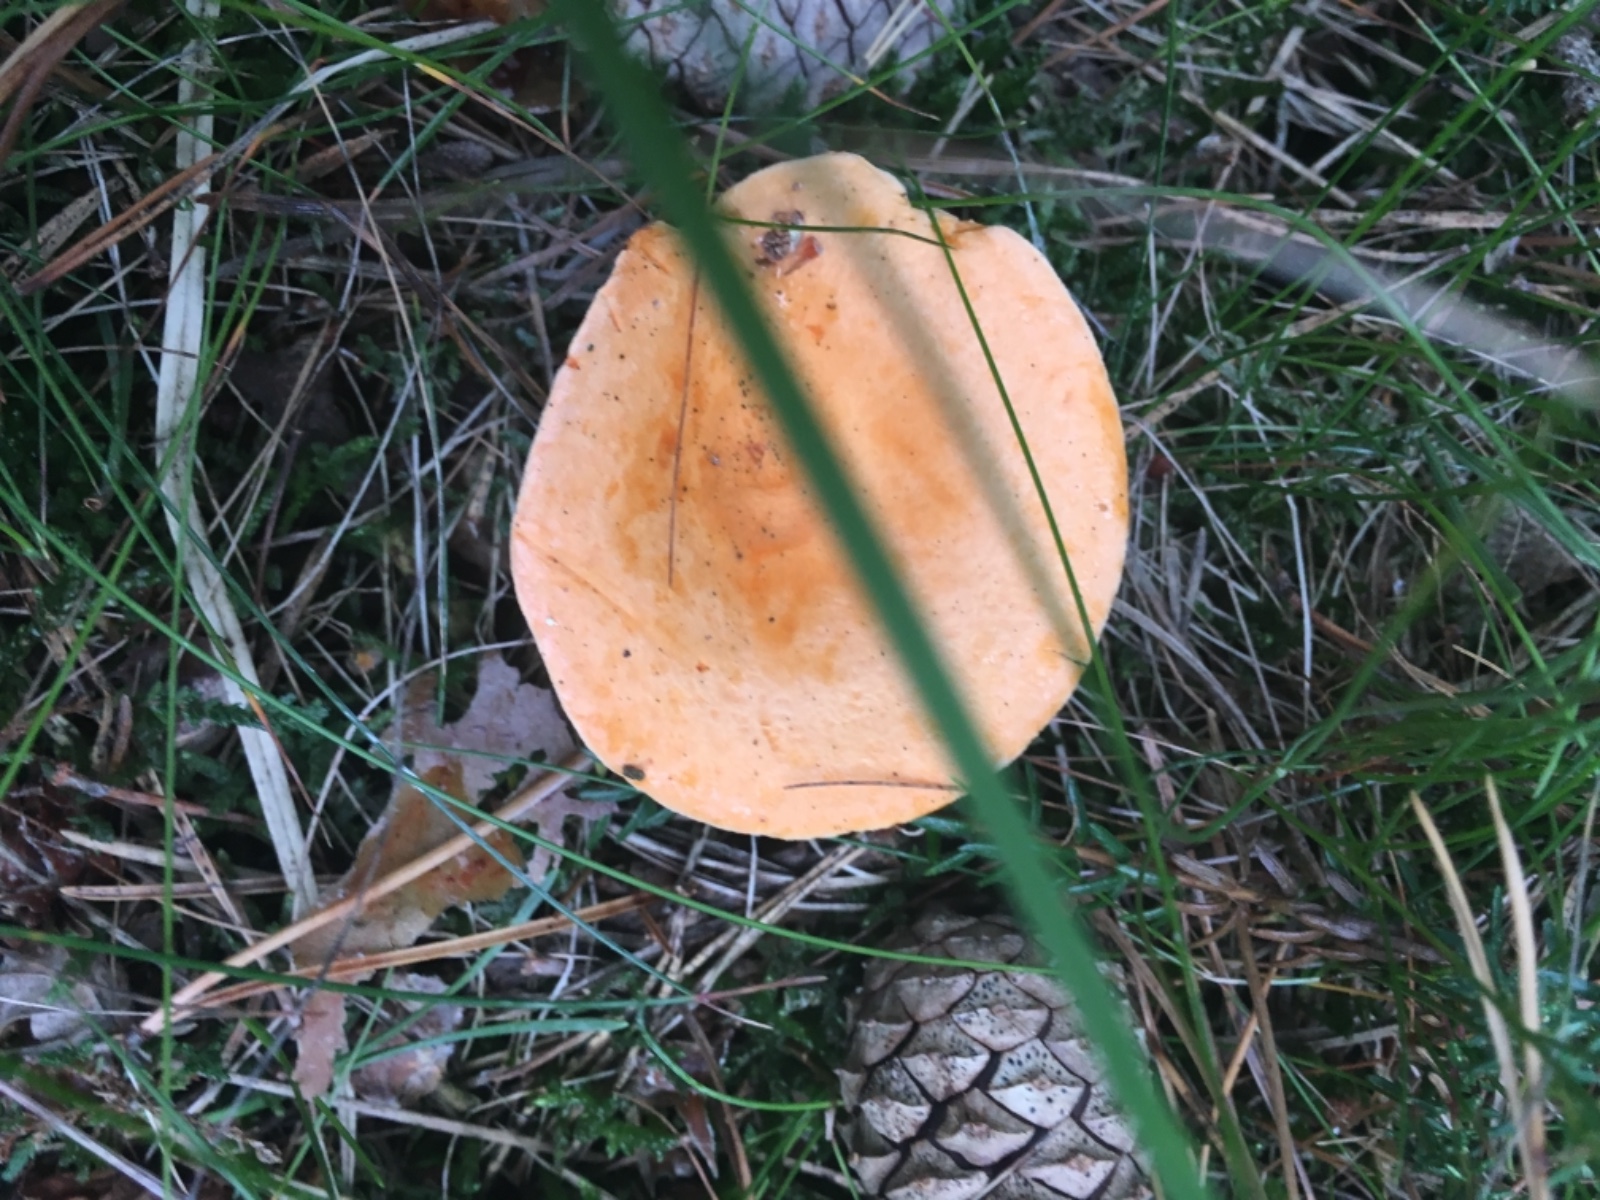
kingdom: Fungi
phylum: Basidiomycota
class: Agaricomycetes
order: Boletales
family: Hygrophoropsidaceae
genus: Hygrophoropsis
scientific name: Hygrophoropsis aurantiaca
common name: almindelig orangekantarel
